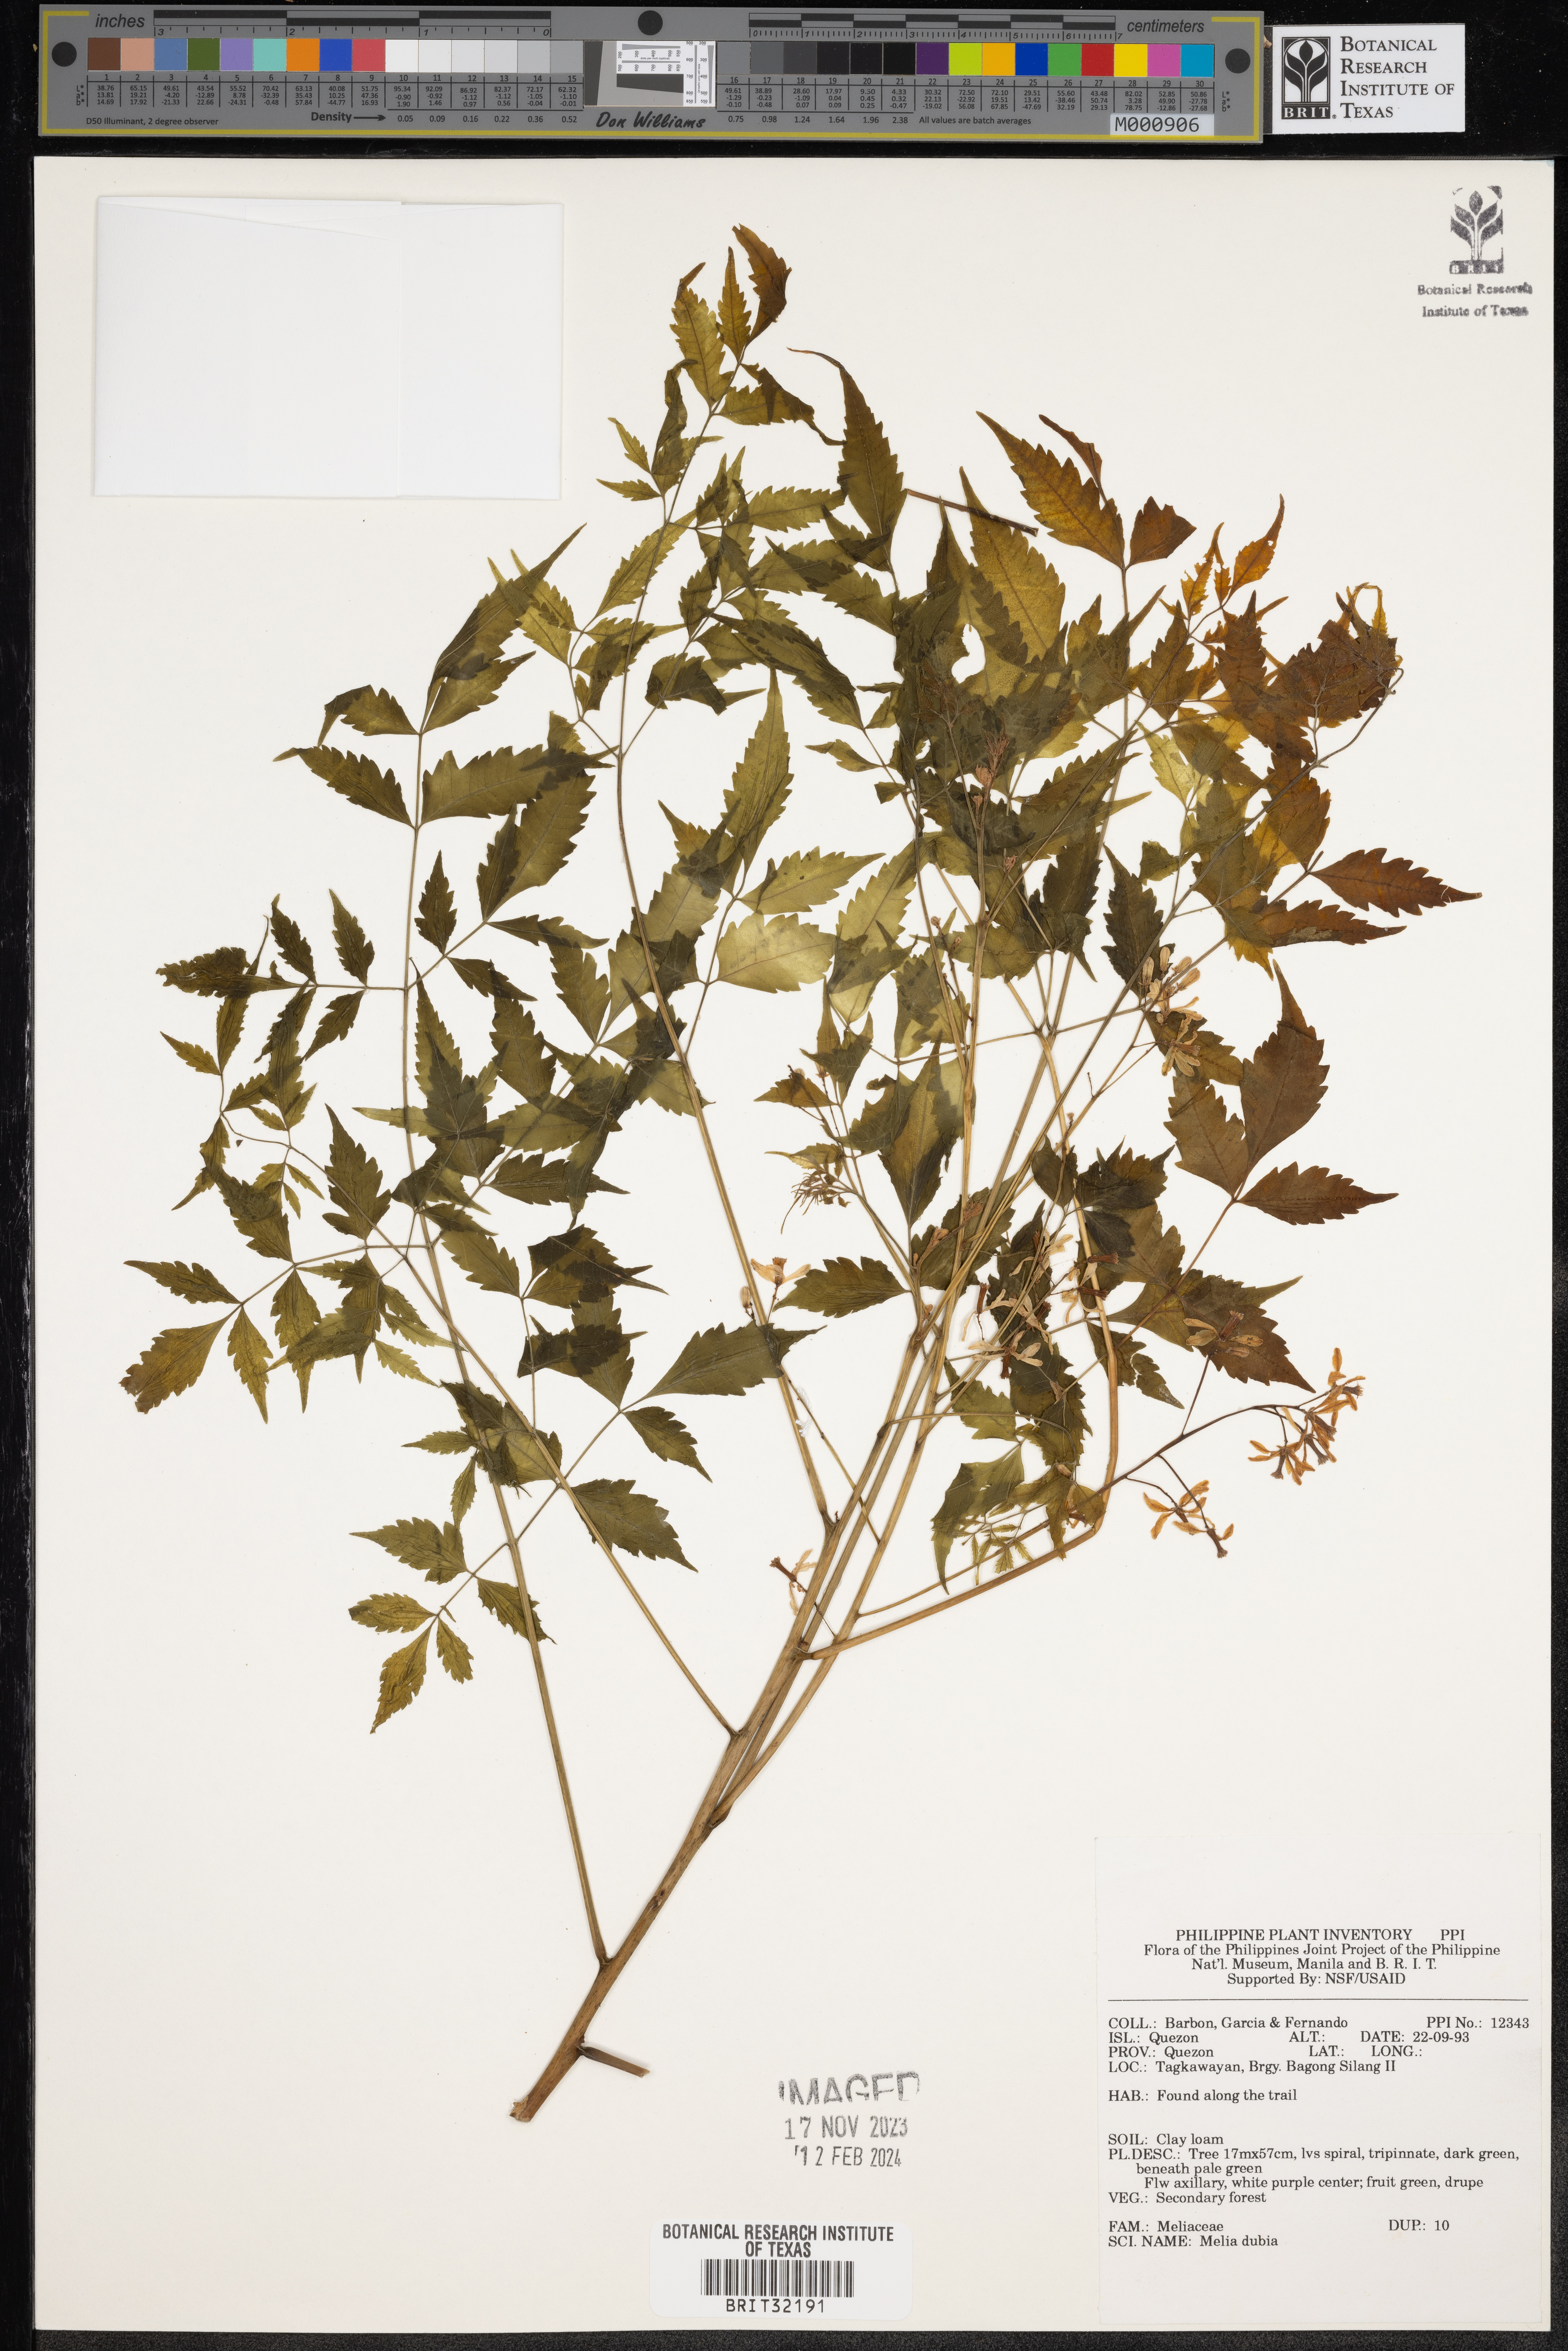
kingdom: Plantae
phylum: Tracheophyta
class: Magnoliopsida
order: Sapindales
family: Meliaceae
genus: Melia
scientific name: Melia azedarach
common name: Chinaberrytree
